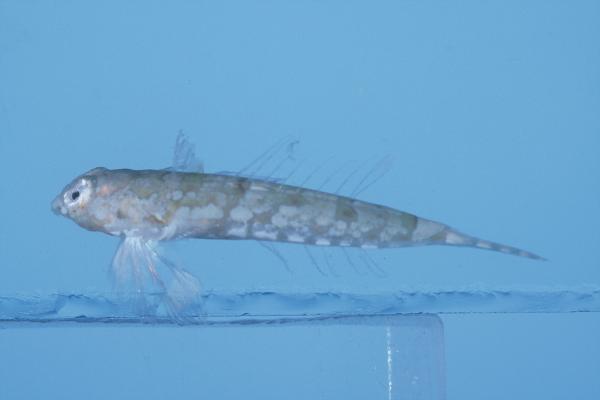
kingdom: Animalia
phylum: Chordata
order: Perciformes
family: Callionymidae
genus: Diplogrammus
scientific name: Diplogrammus infulatus
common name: Indian ocean fold dragonet
